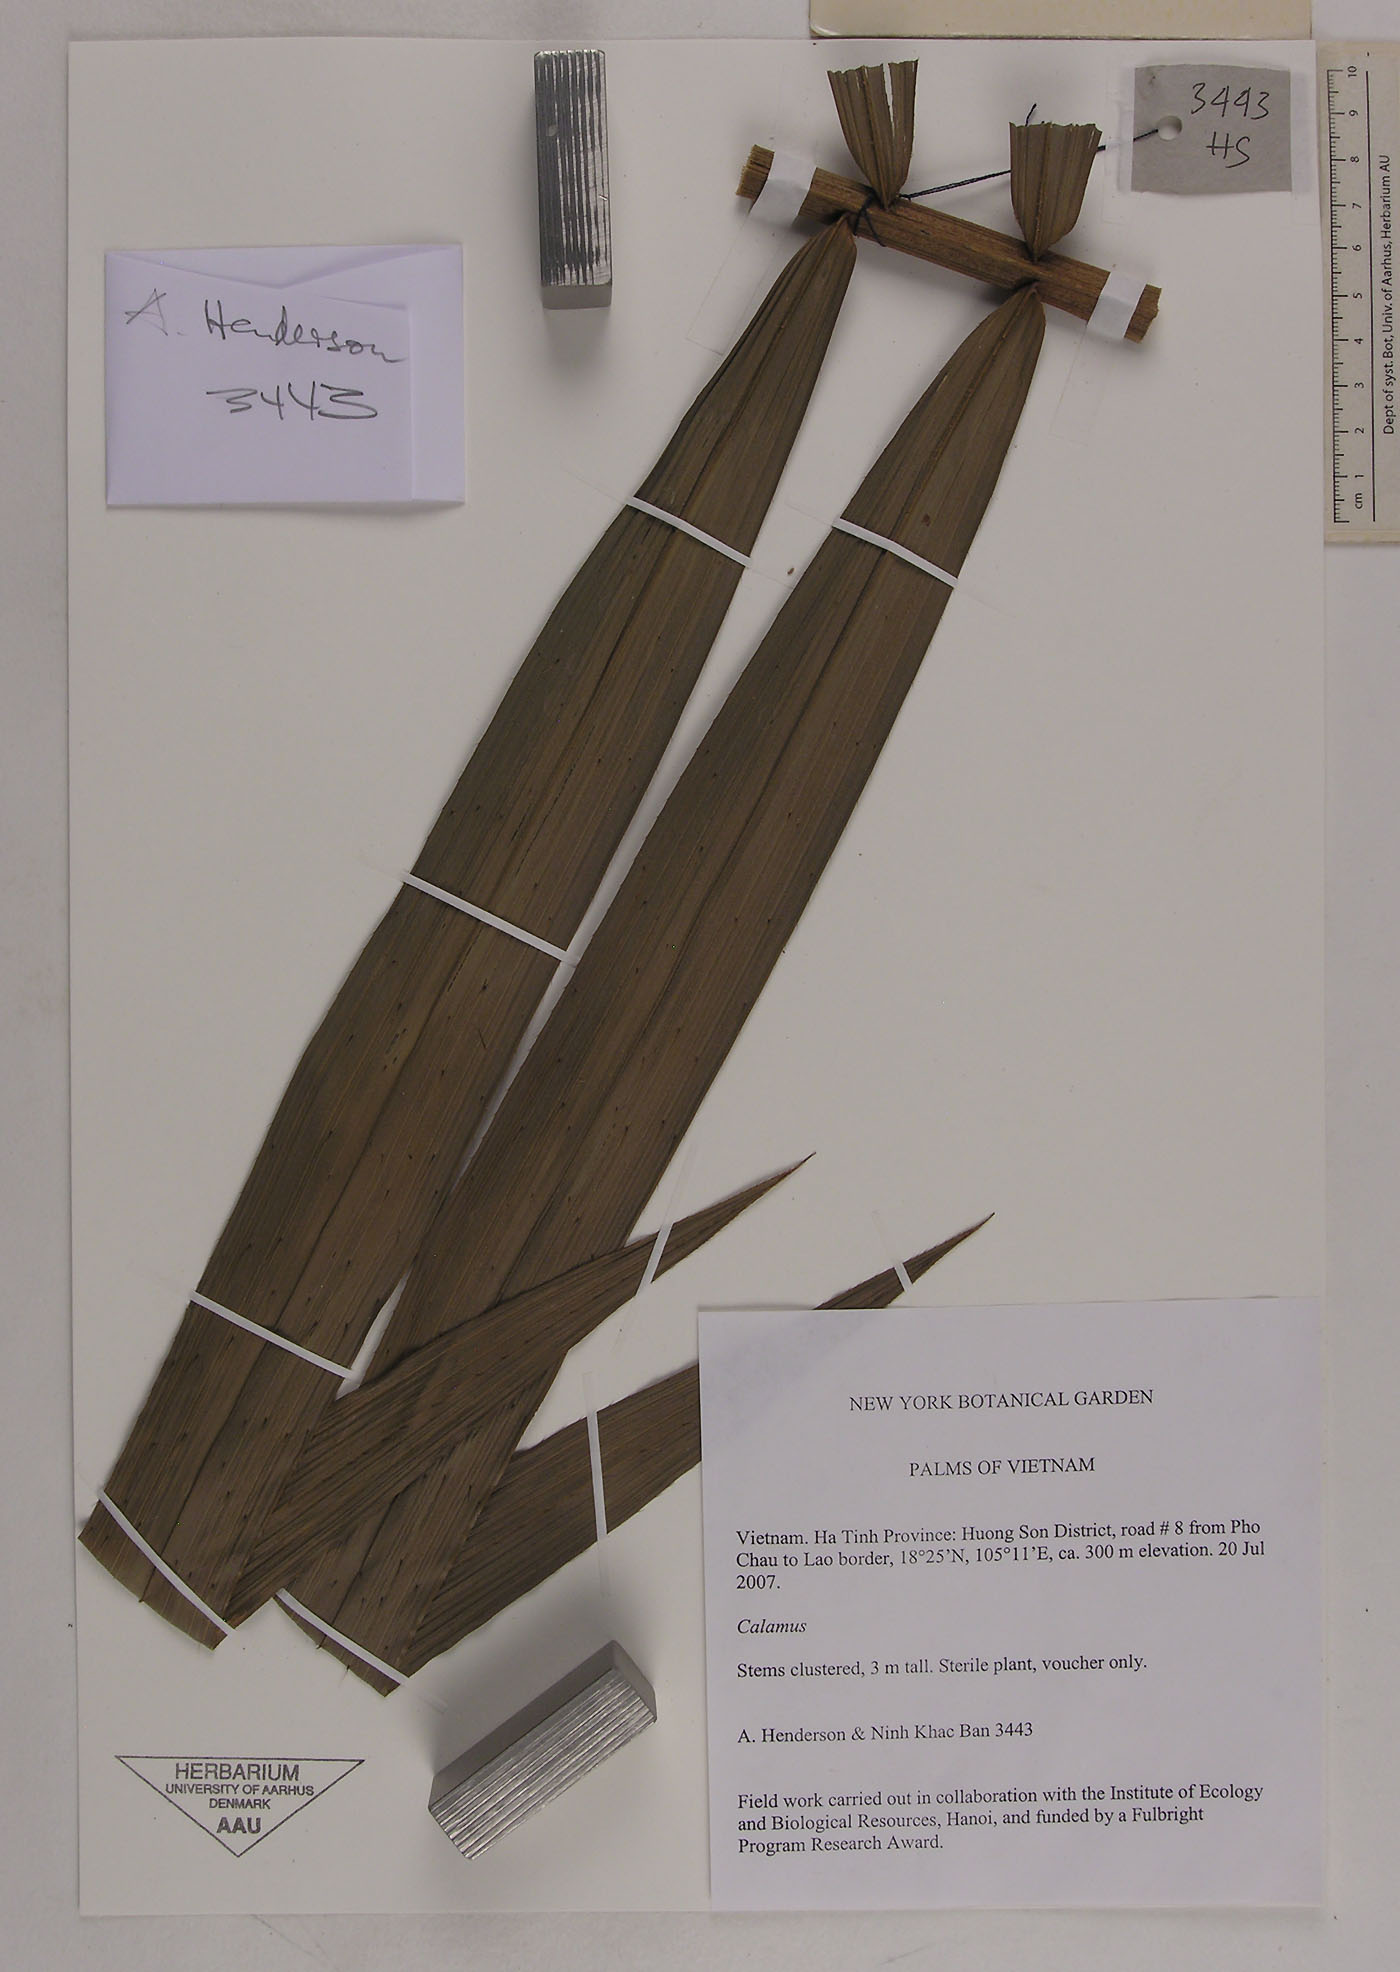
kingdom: Plantae
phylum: Tracheophyta
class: Liliopsida
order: Arecales
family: Arecaceae
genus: Daemonorops
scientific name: Daemonorops
